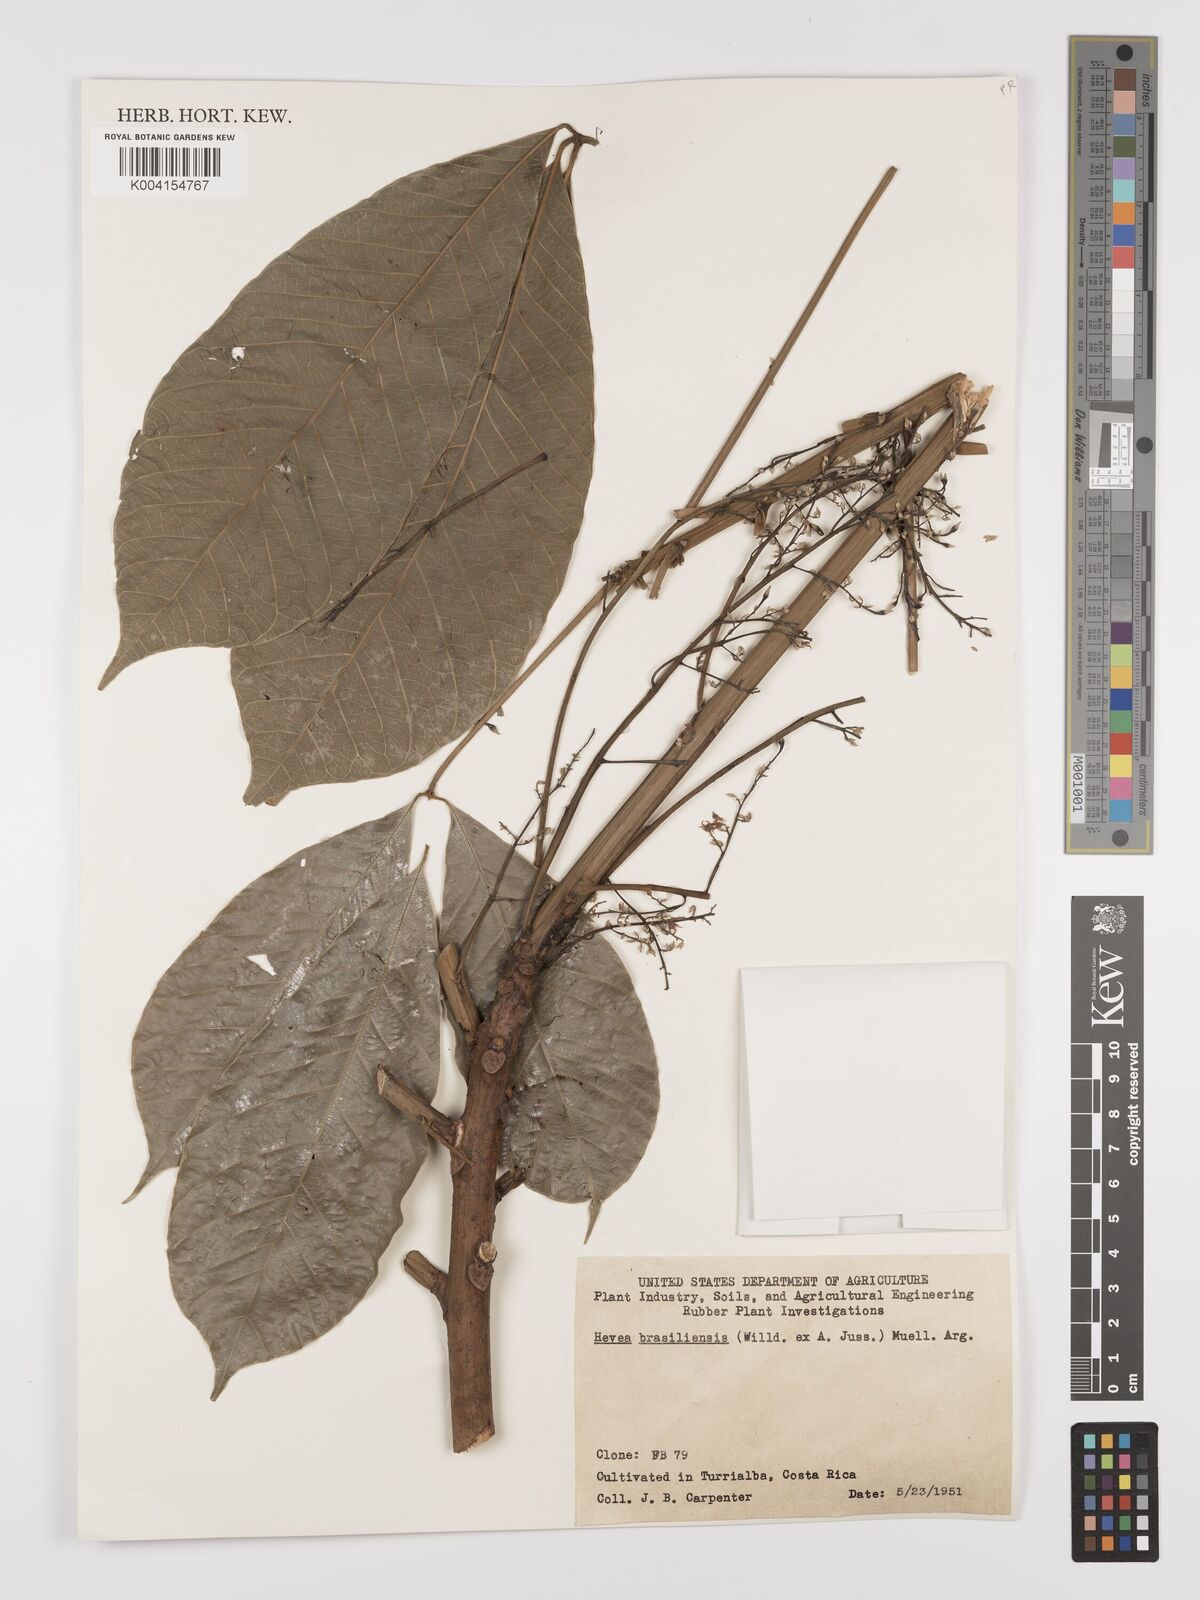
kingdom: Plantae
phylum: Tracheophyta
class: Magnoliopsida
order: Malpighiales
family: Euphorbiaceae
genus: Hevea
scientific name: Hevea brasiliensis
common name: Natural rubber
